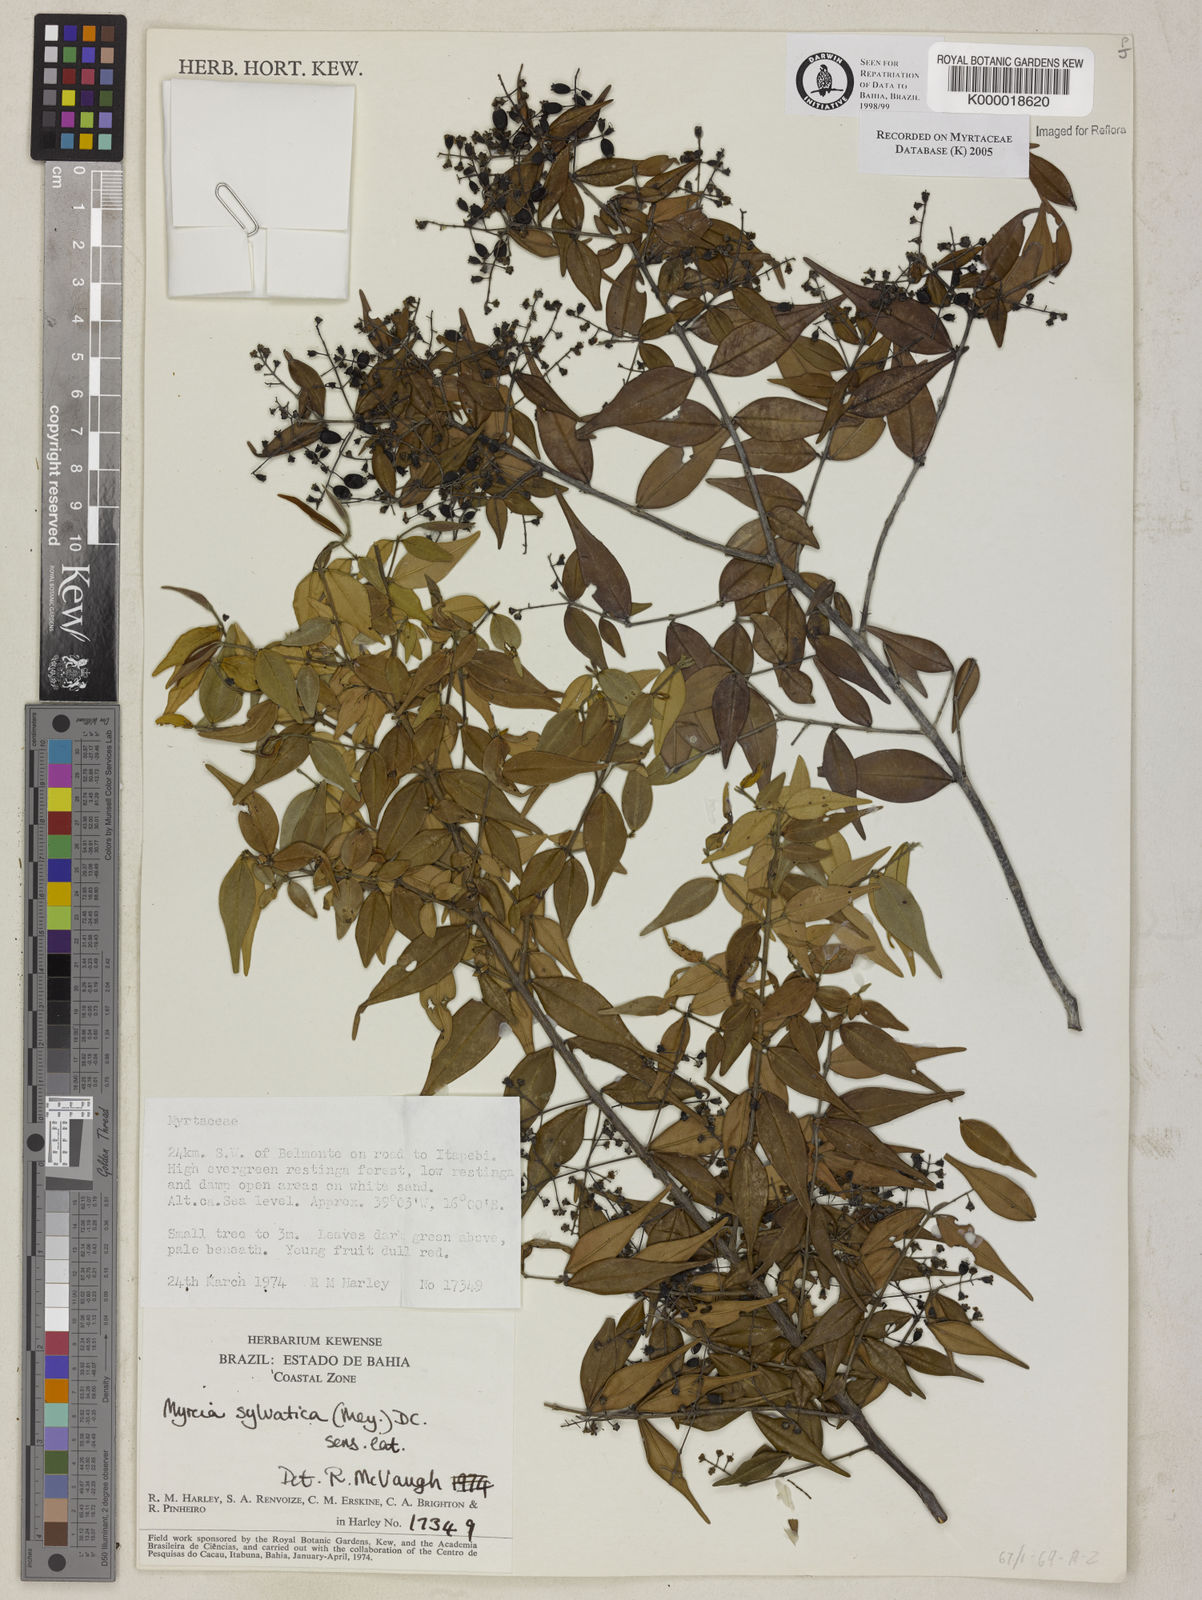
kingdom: Plantae
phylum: Tracheophyta
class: Magnoliopsida
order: Myrtales
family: Myrtaceae
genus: Myrcia
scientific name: Myrcia sylvatica
